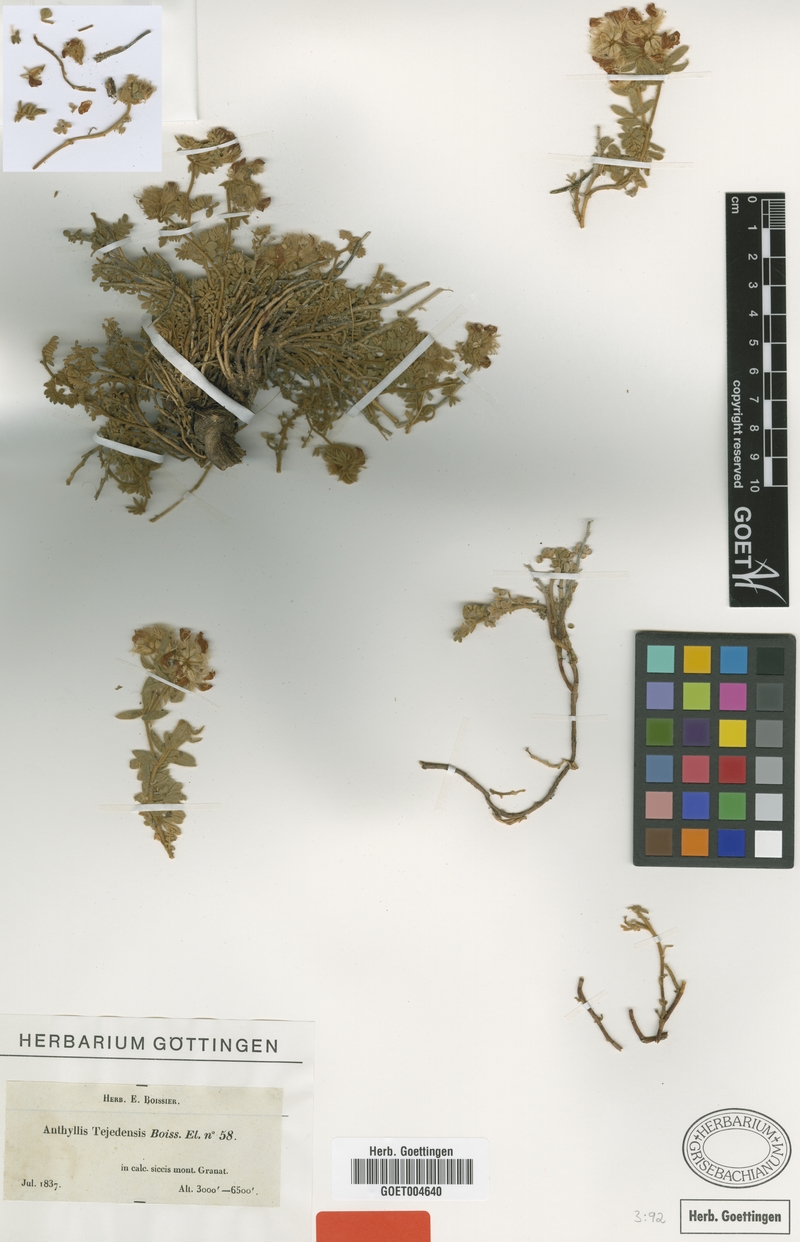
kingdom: Plantae
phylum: Tracheophyta
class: Magnoliopsida
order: Fabales
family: Fabaceae
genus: Anthyllis
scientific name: Anthyllis tejedensis
